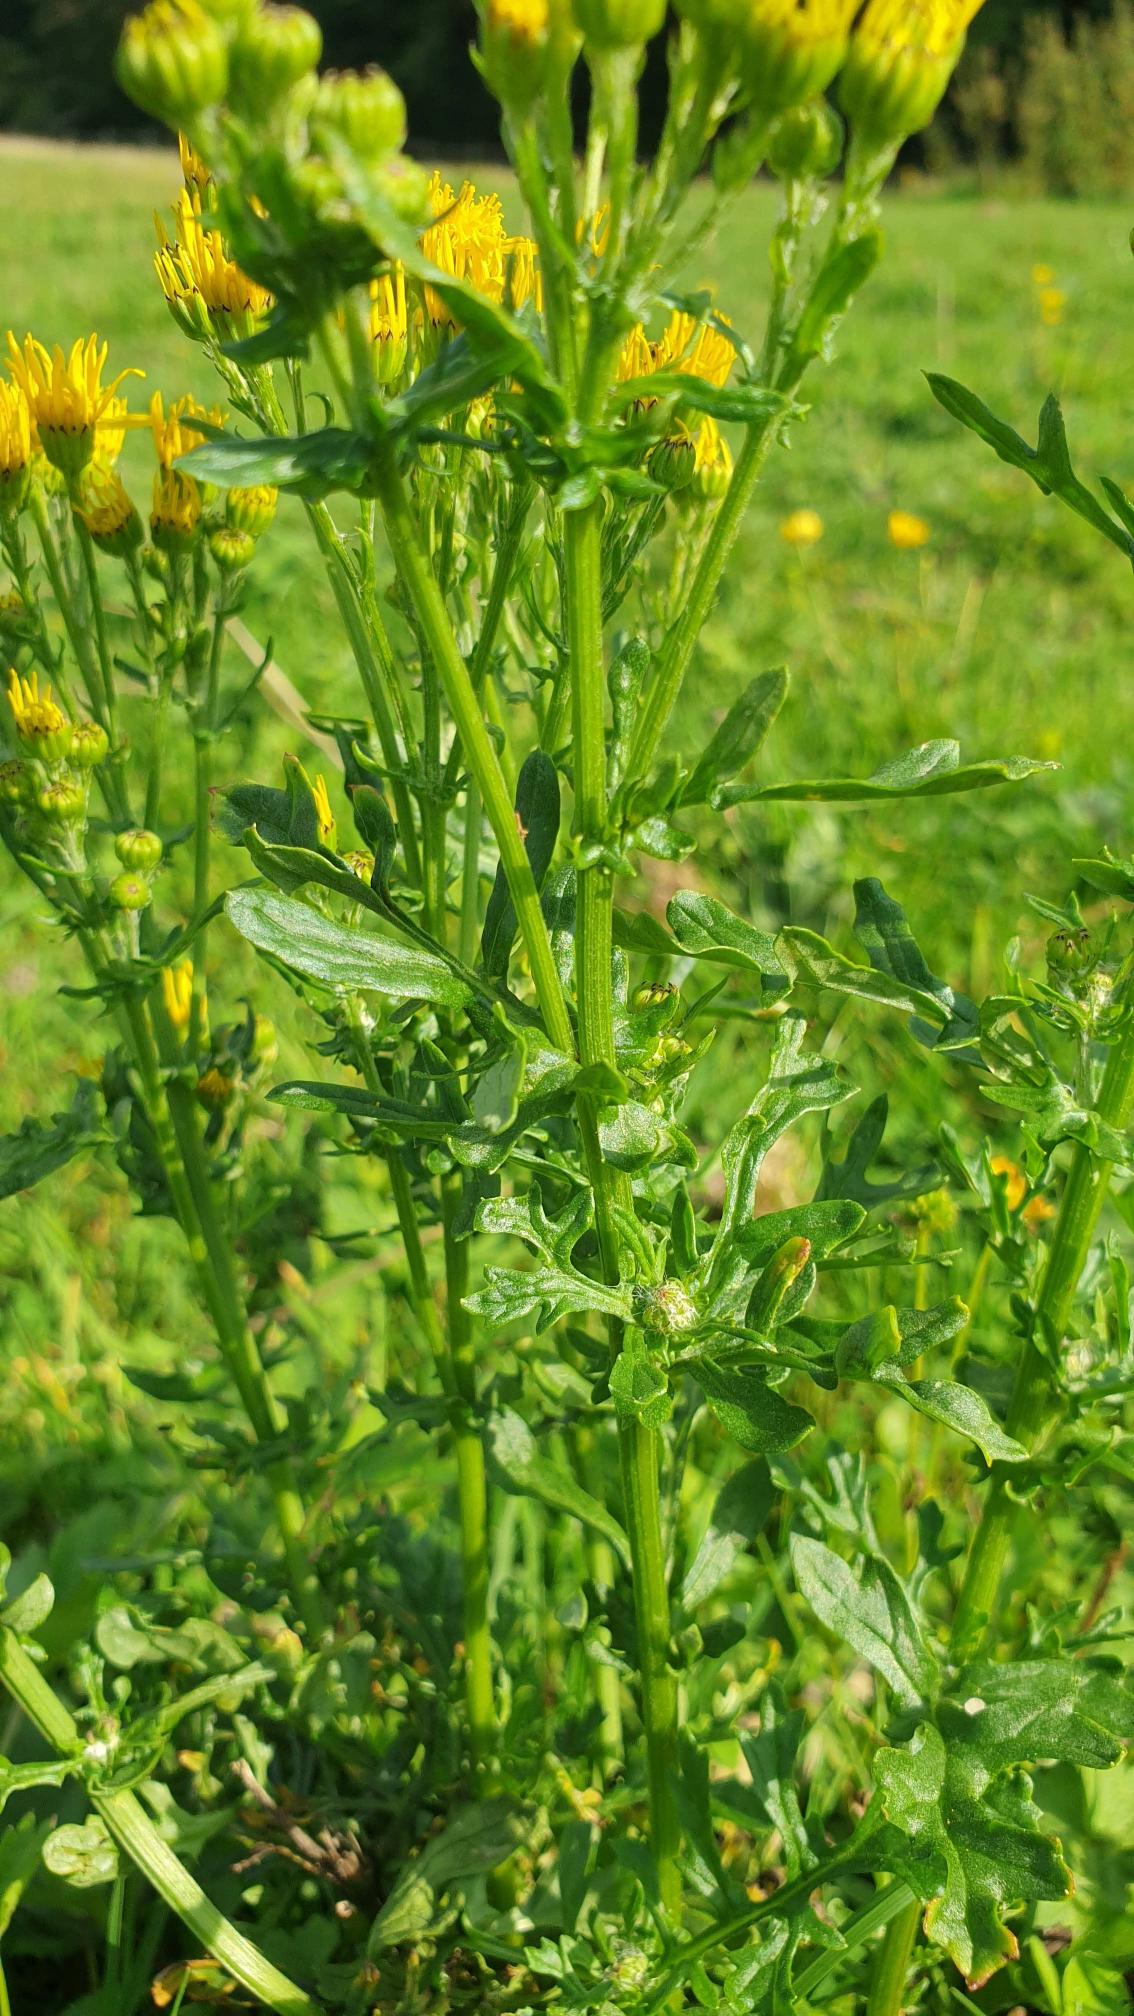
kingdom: Plantae
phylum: Tracheophyta
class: Magnoliopsida
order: Asterales
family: Asteraceae
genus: Jacobaea
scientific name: Jacobaea vulgaris
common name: Eng-brandbæger
